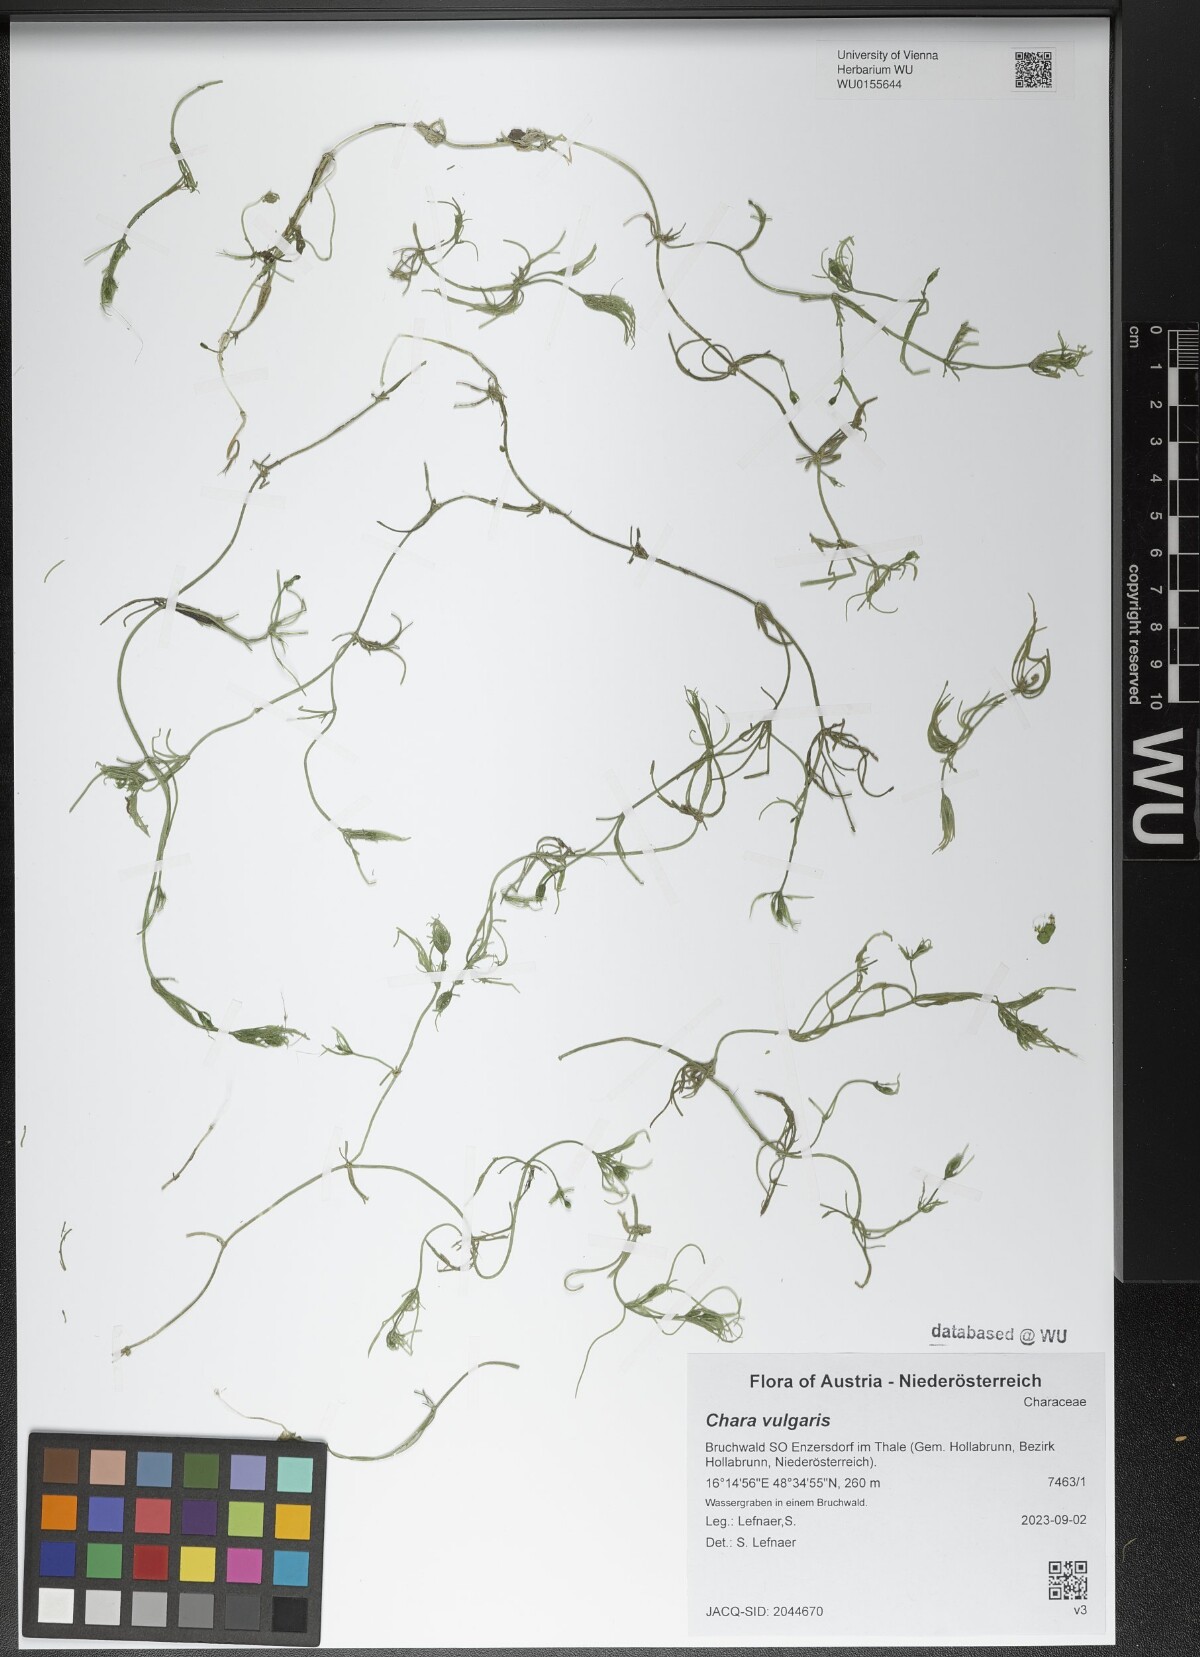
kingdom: Plantae
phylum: Charophyta
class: Charophyceae
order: Charales
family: Characeae
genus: Chara
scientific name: Chara vulgaris
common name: Common stonewort
